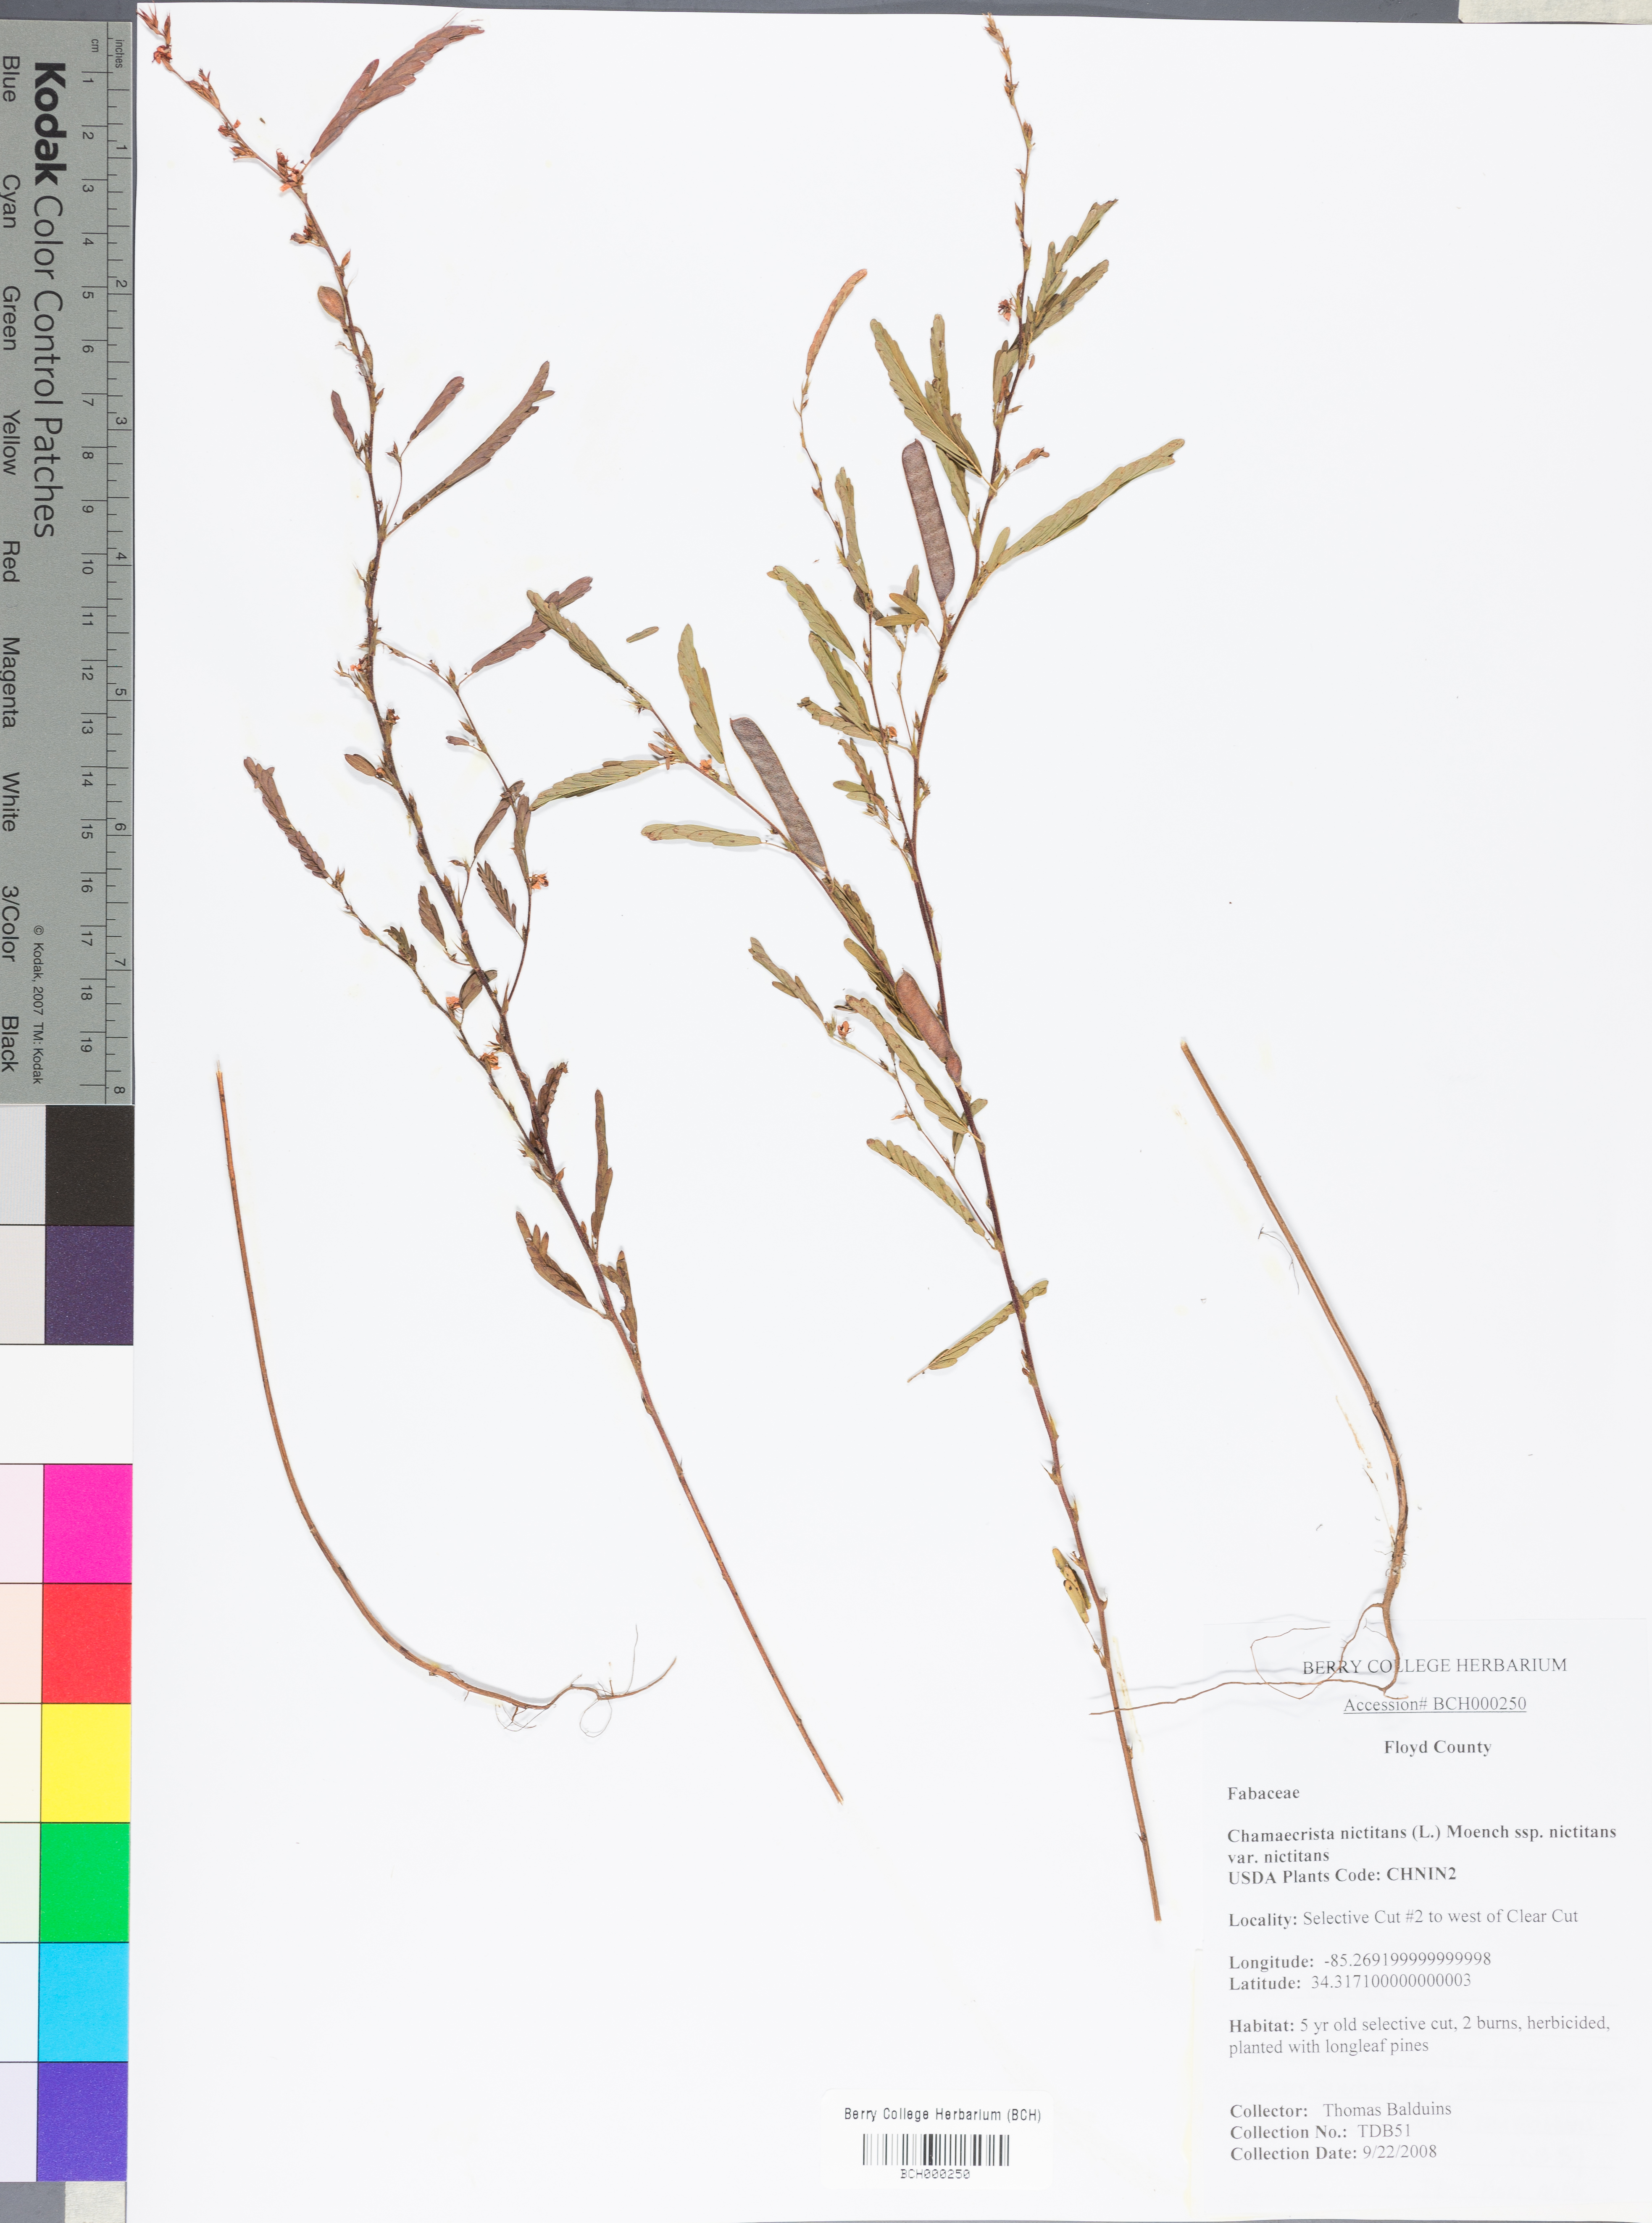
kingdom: Plantae
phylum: Tracheophyta
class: Magnoliopsida
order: Fabales
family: Fabaceae
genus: Chamaecrista
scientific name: Chamaecrista nictitans
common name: Sensitive cassia
